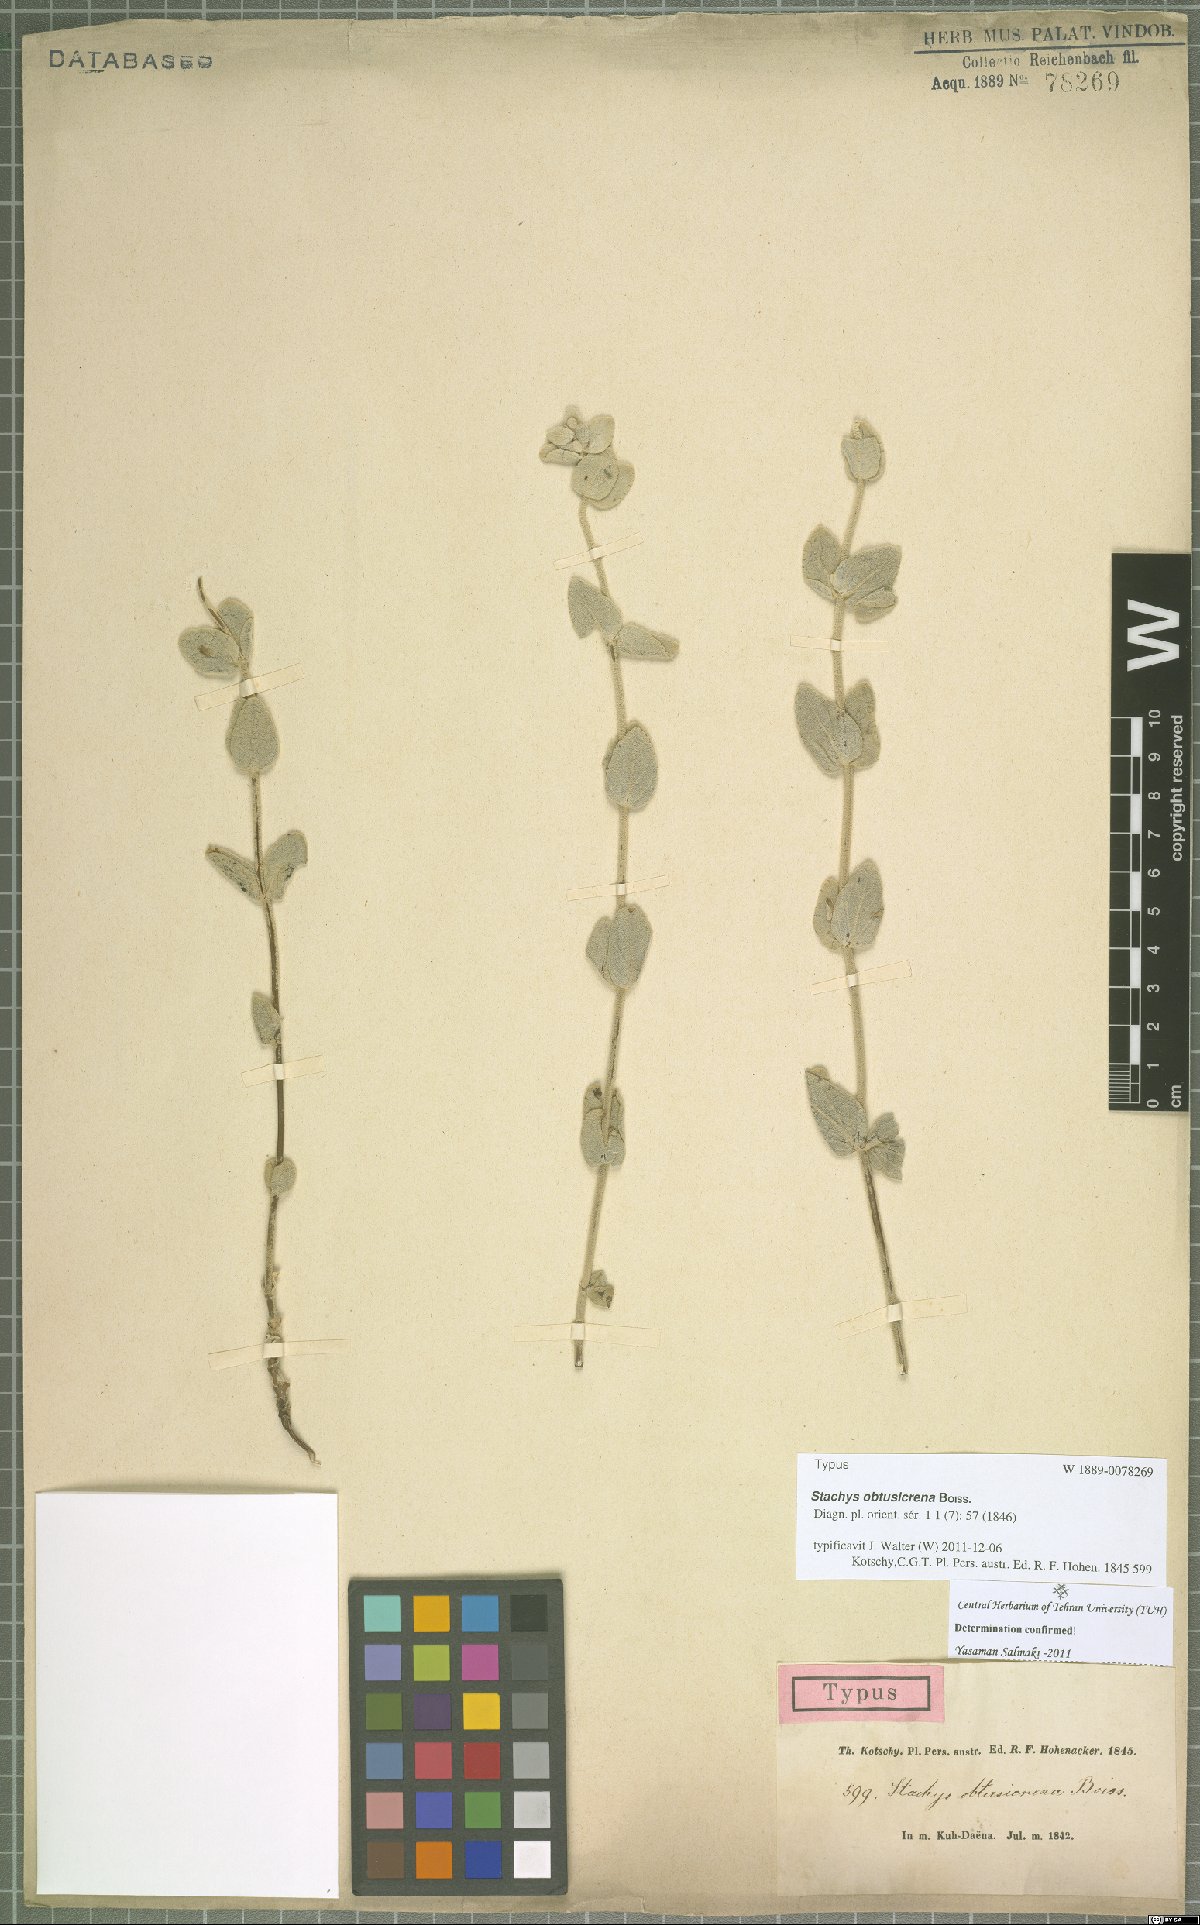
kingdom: Plantae
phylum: Tracheophyta
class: Magnoliopsida
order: Lamiales
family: Lamiaceae
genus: Stachys
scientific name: Stachys obtusicrena
